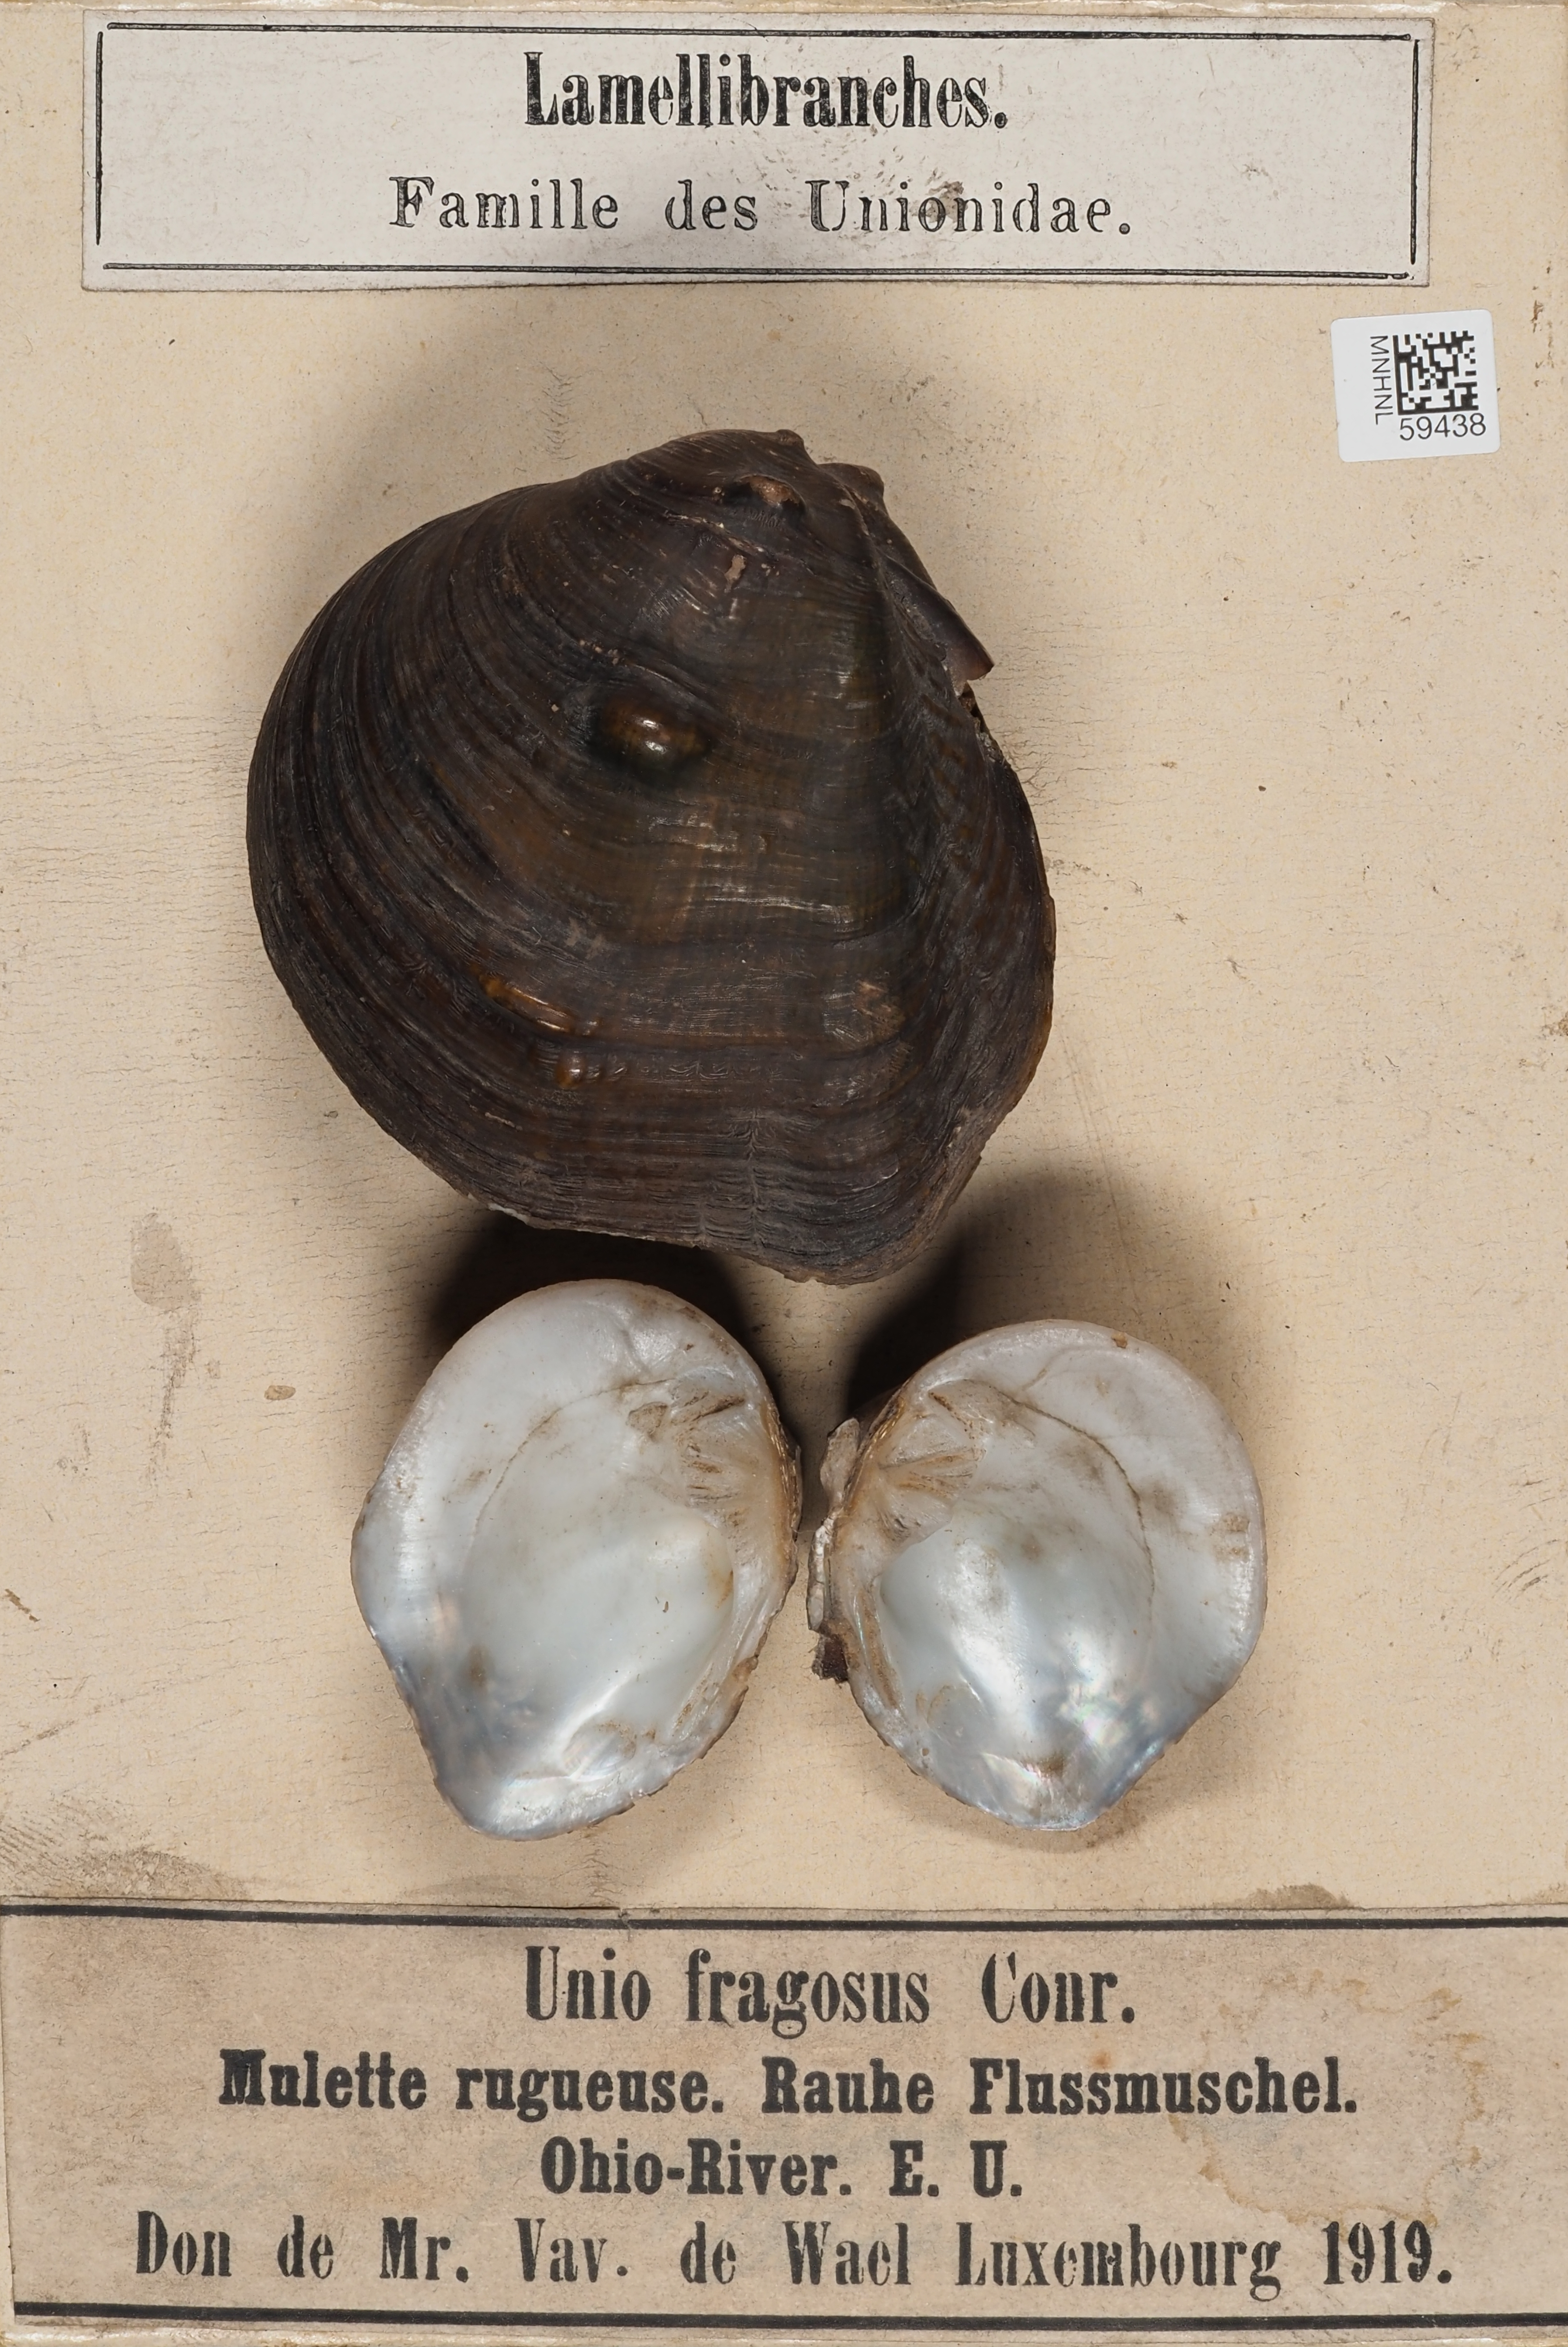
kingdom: Animalia
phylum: Mollusca
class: Bivalvia
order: Unionida
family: Unionidae
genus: Quadrula
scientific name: Quadrula fragosa
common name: Winged mapleleaf
